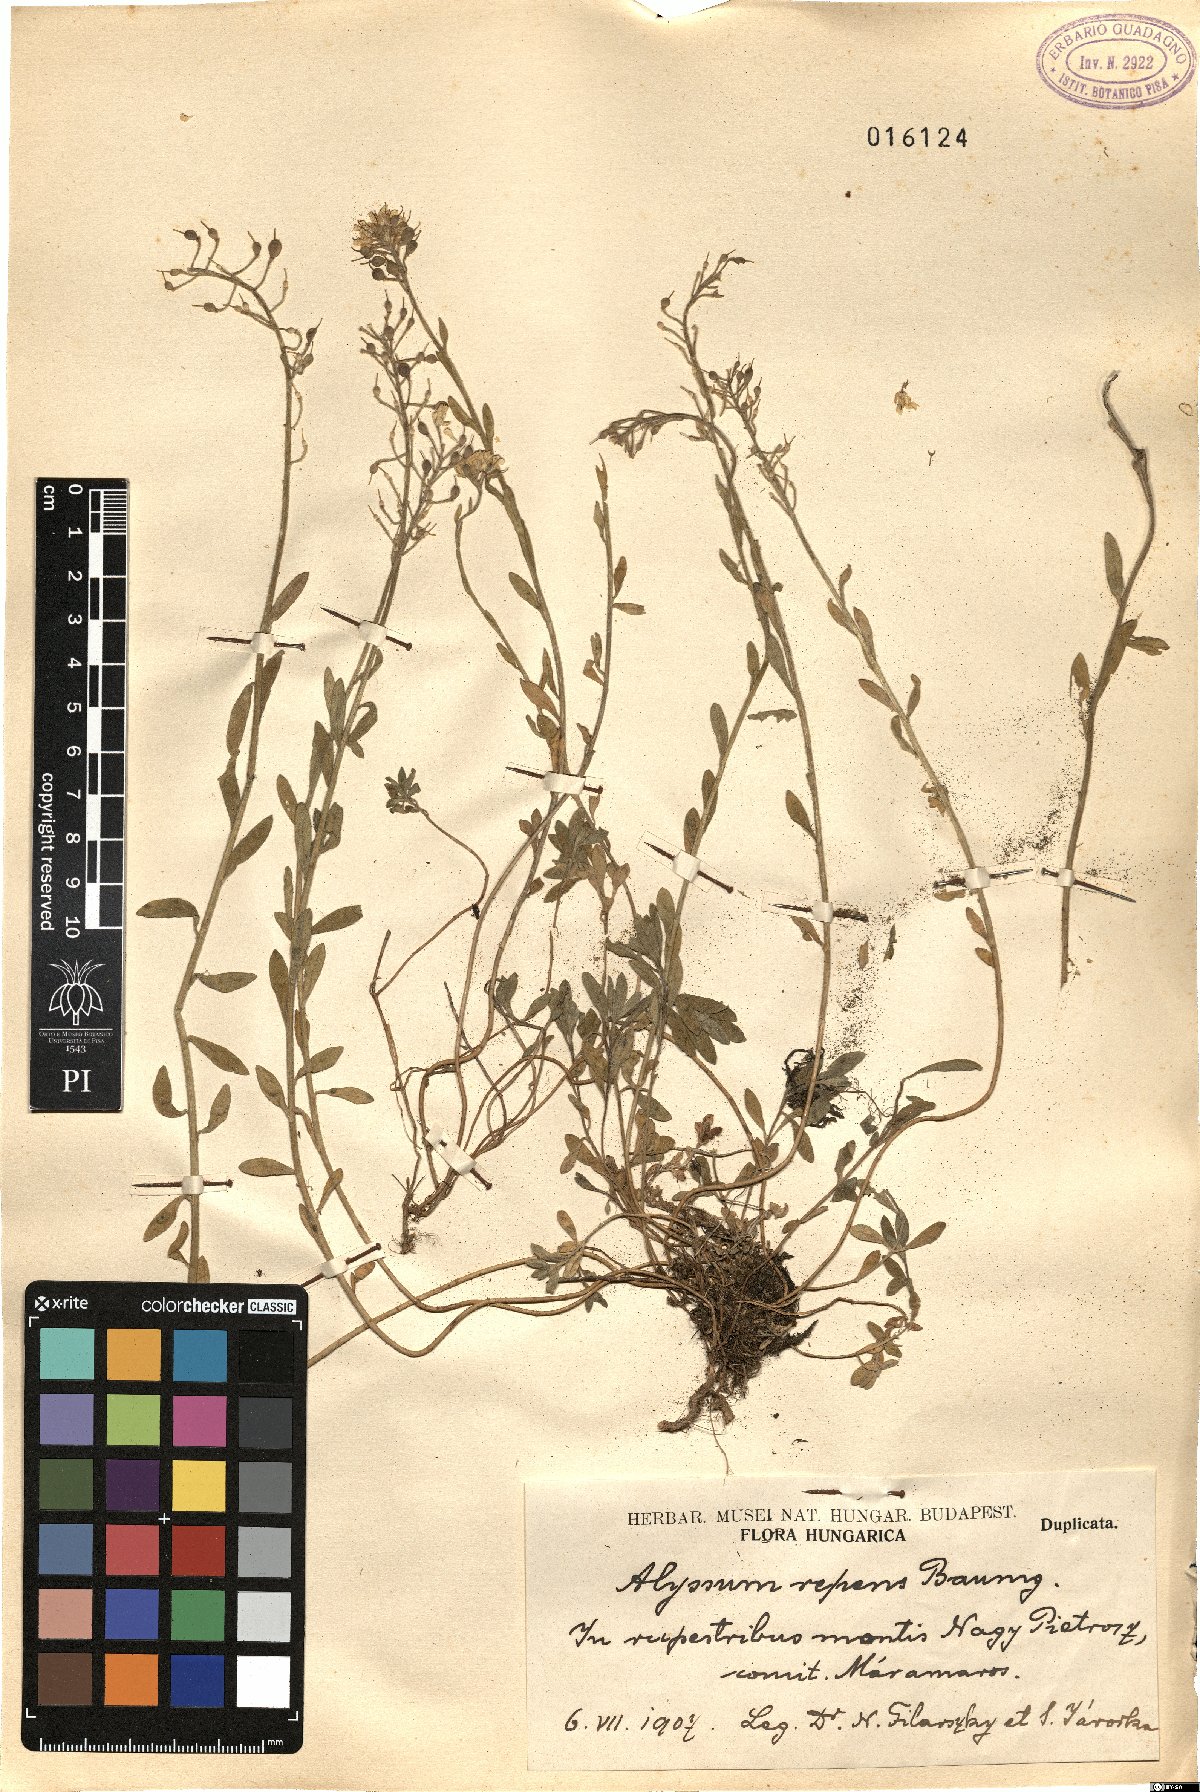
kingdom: Plantae
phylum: Tracheophyta
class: Magnoliopsida
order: Brassicales
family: Brassicaceae
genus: Alyssum
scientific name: Alyssum repens
